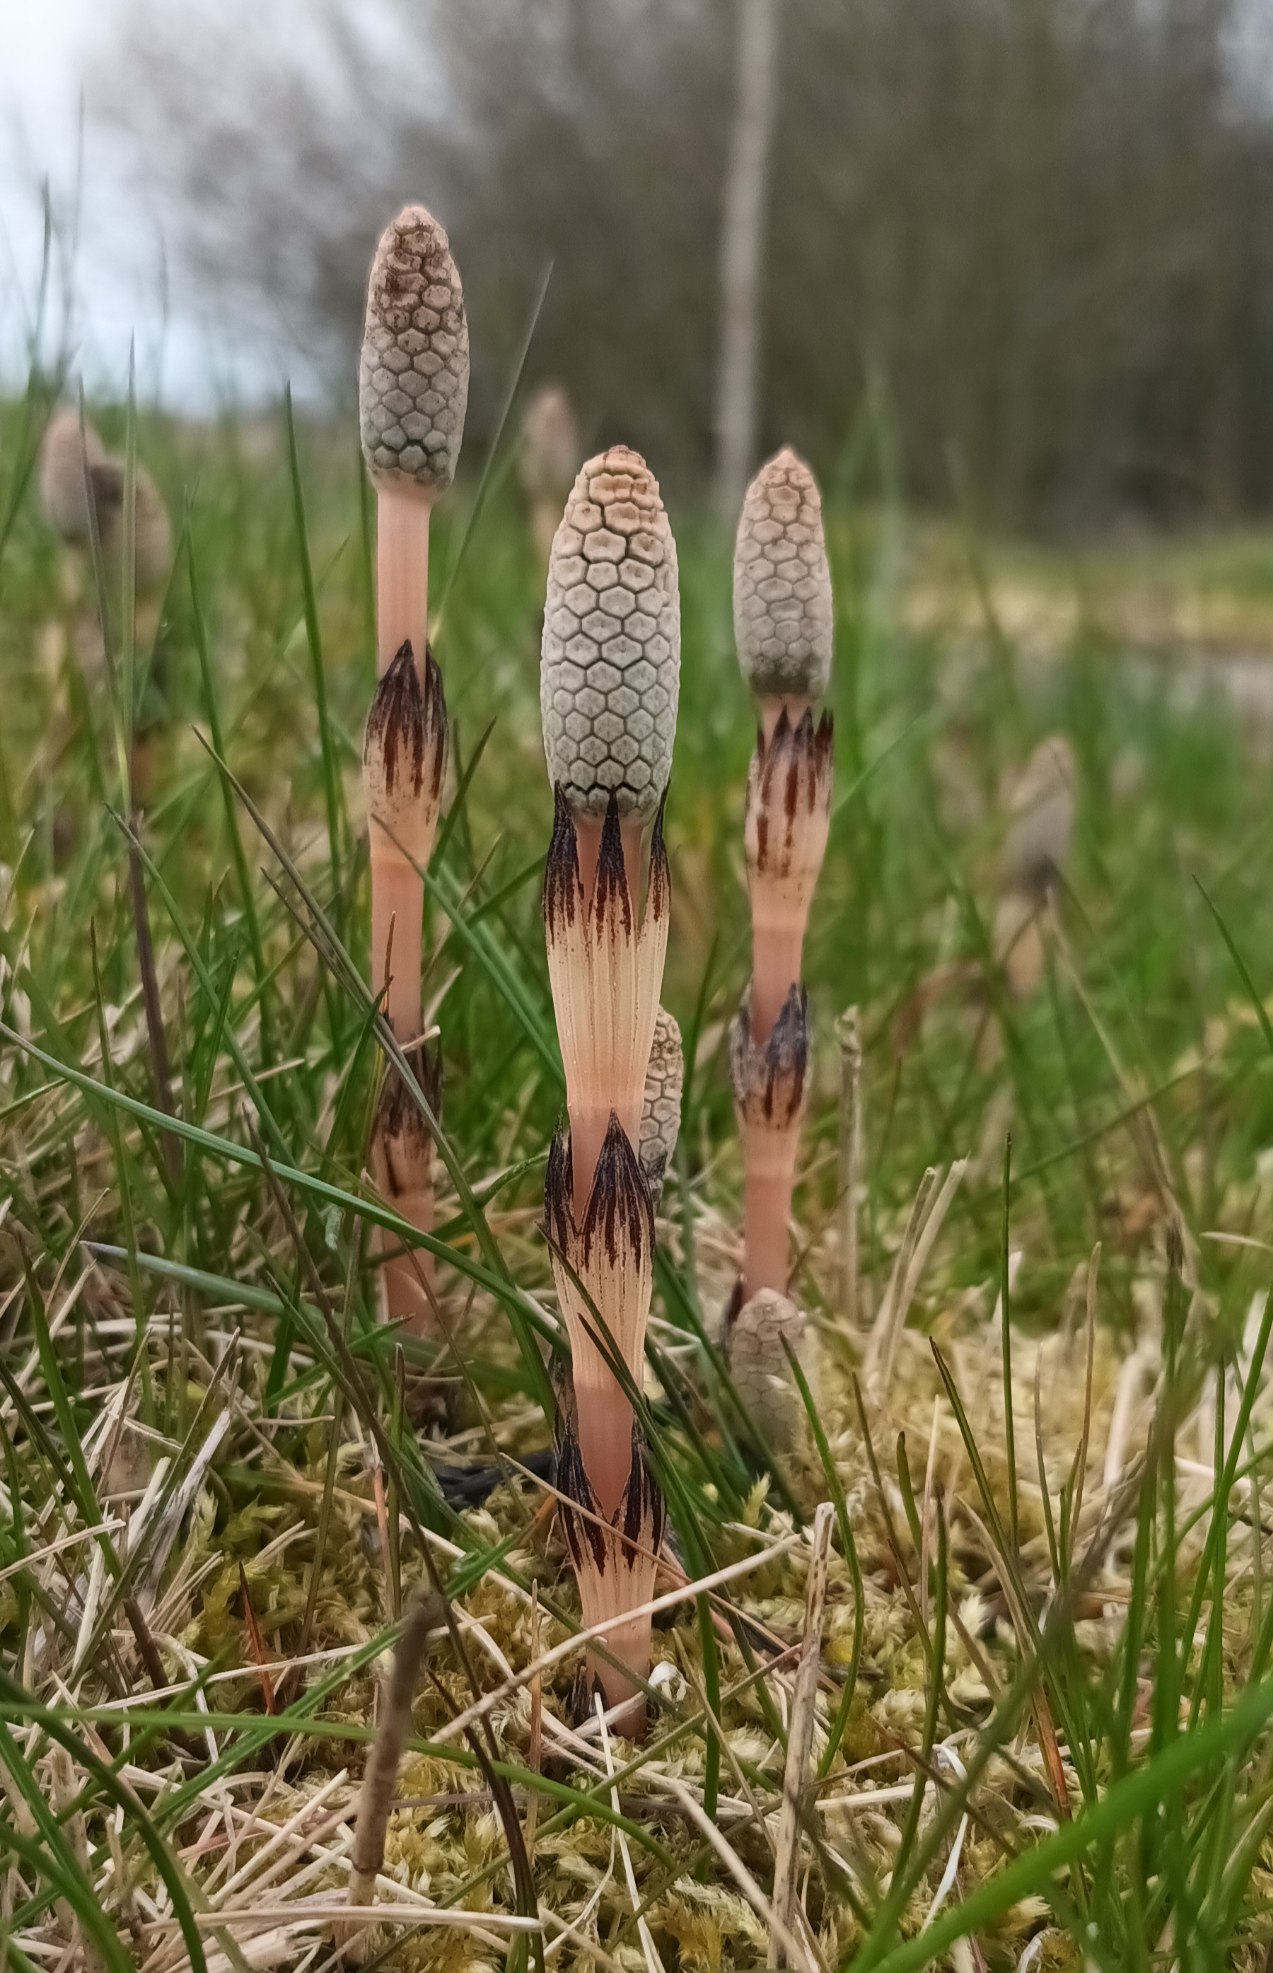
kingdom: Plantae
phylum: Tracheophyta
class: Polypodiopsida
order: Equisetales
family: Equisetaceae
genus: Equisetum
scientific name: Equisetum arvense
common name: Ager-padderok
